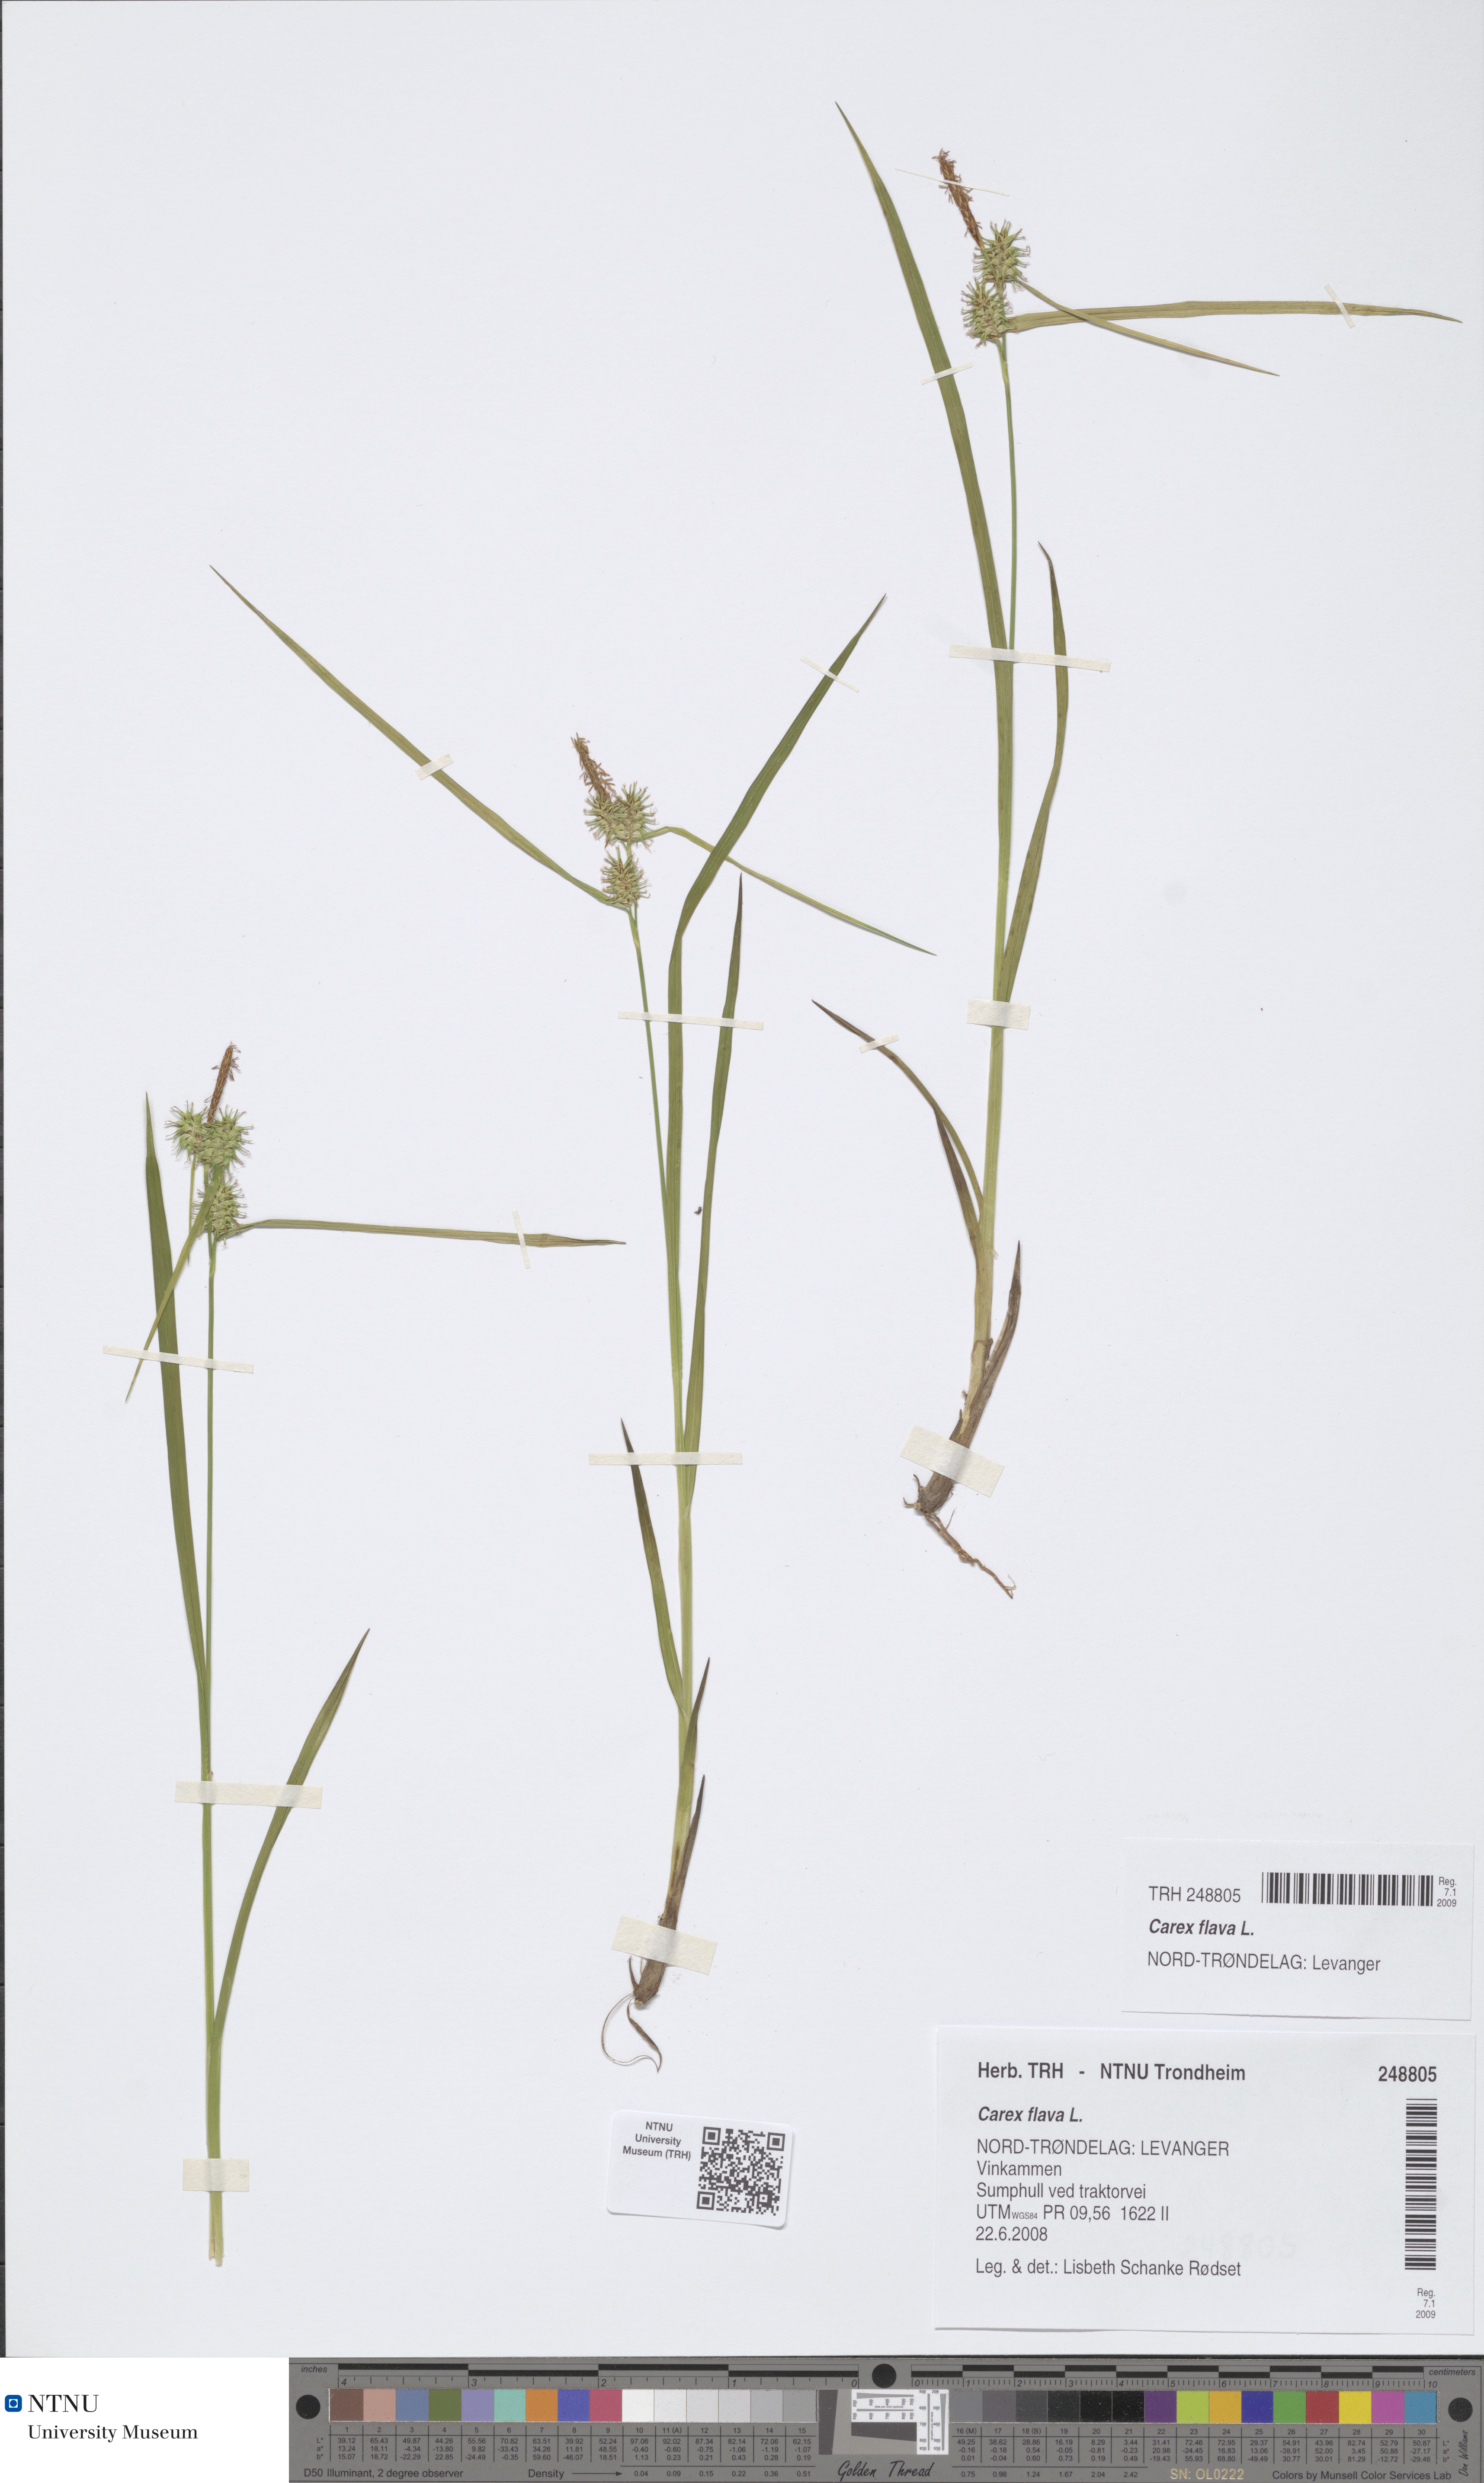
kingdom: Plantae
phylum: Tracheophyta
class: Liliopsida
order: Poales
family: Cyperaceae
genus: Carex
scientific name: Carex flava
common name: Large yellow-sedge
